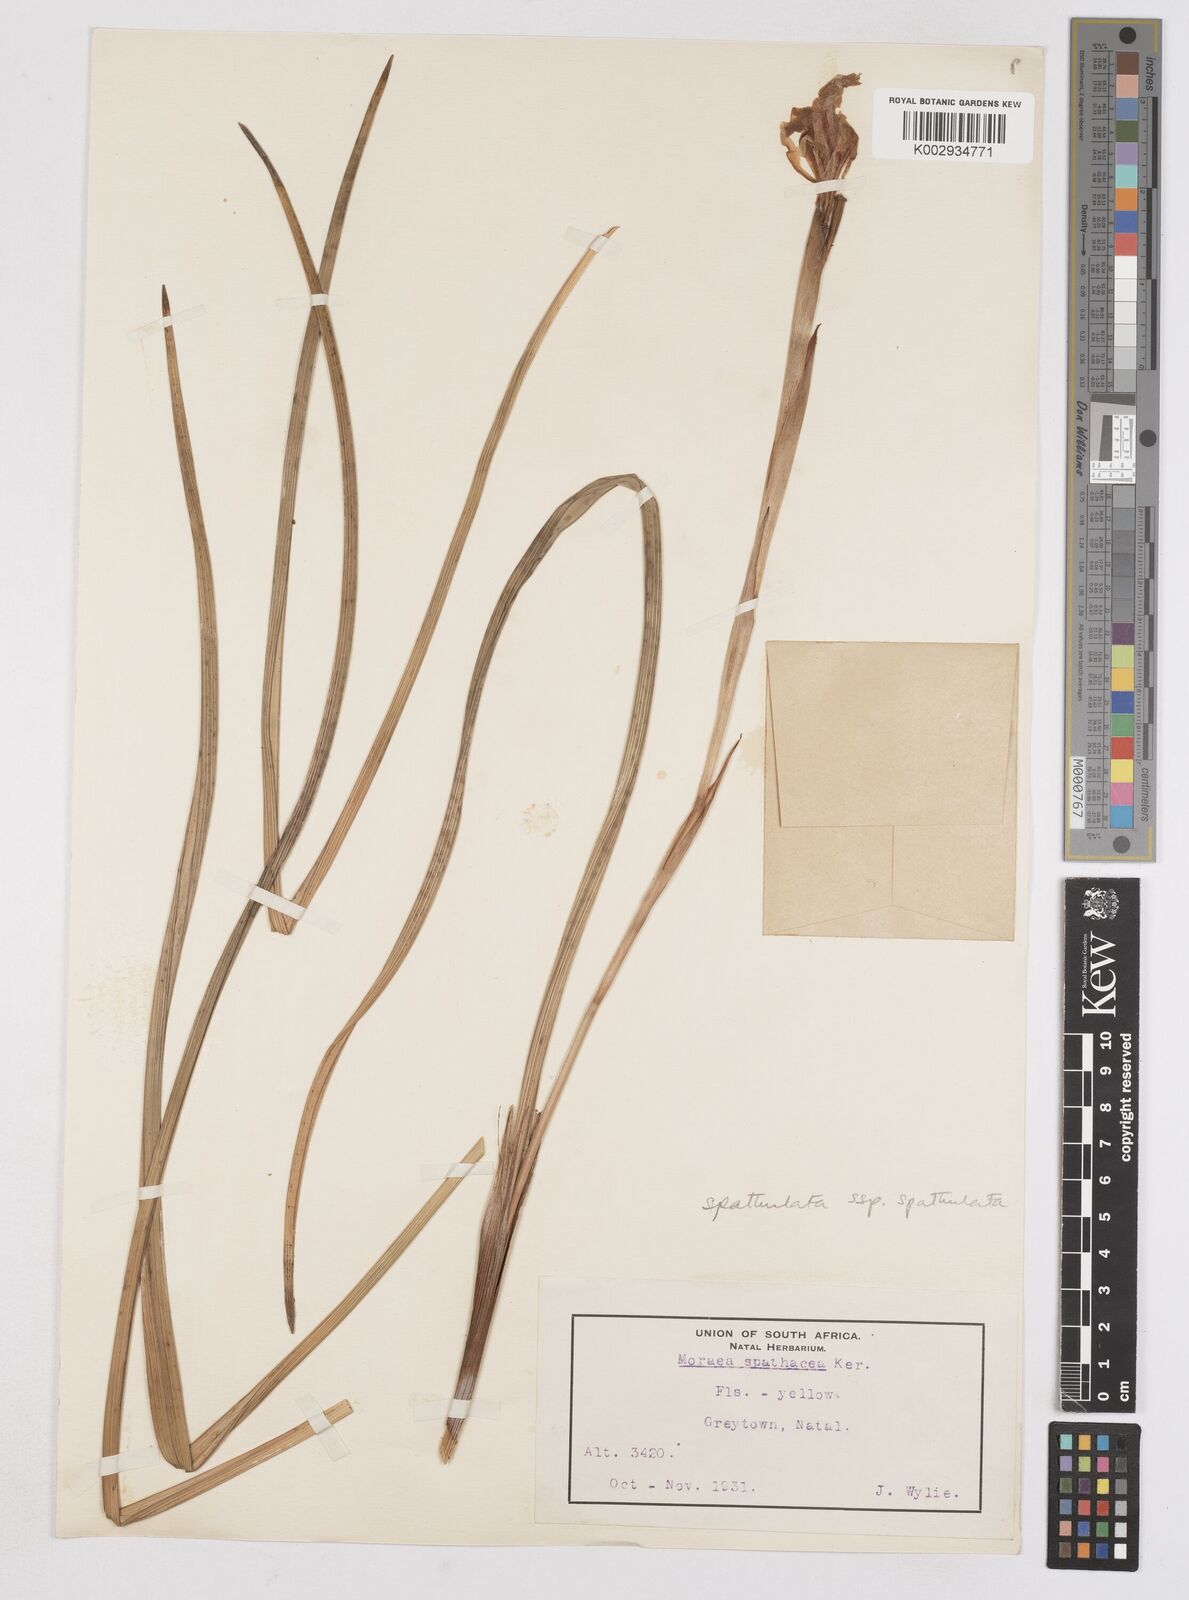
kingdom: Plantae
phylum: Tracheophyta
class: Liliopsida
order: Asparagales
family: Iridaceae
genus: Moraea
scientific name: Moraea spathulata
